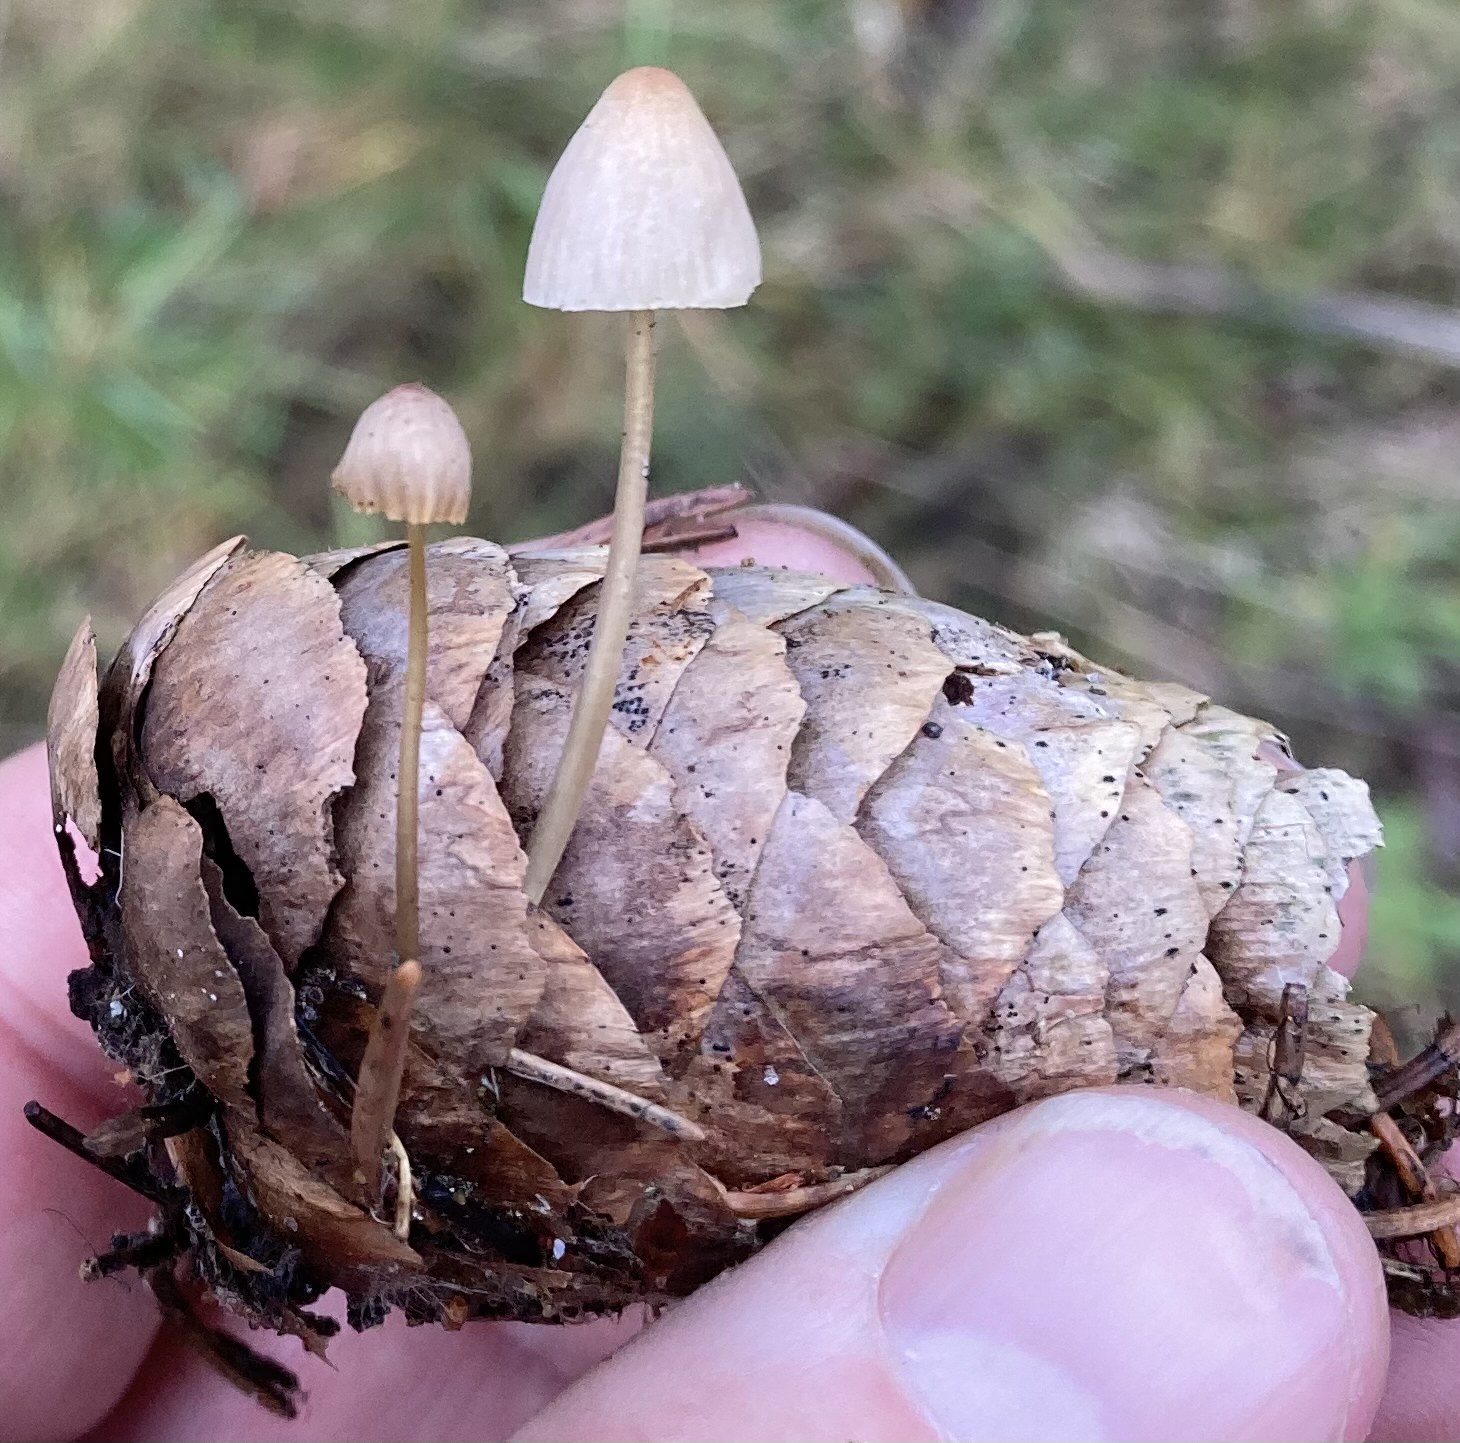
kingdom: Fungi
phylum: Basidiomycota
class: Agaricomycetes
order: Agaricales
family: Mycenaceae
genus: Mycena
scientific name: Mycena metata
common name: rødlig huesvamp
